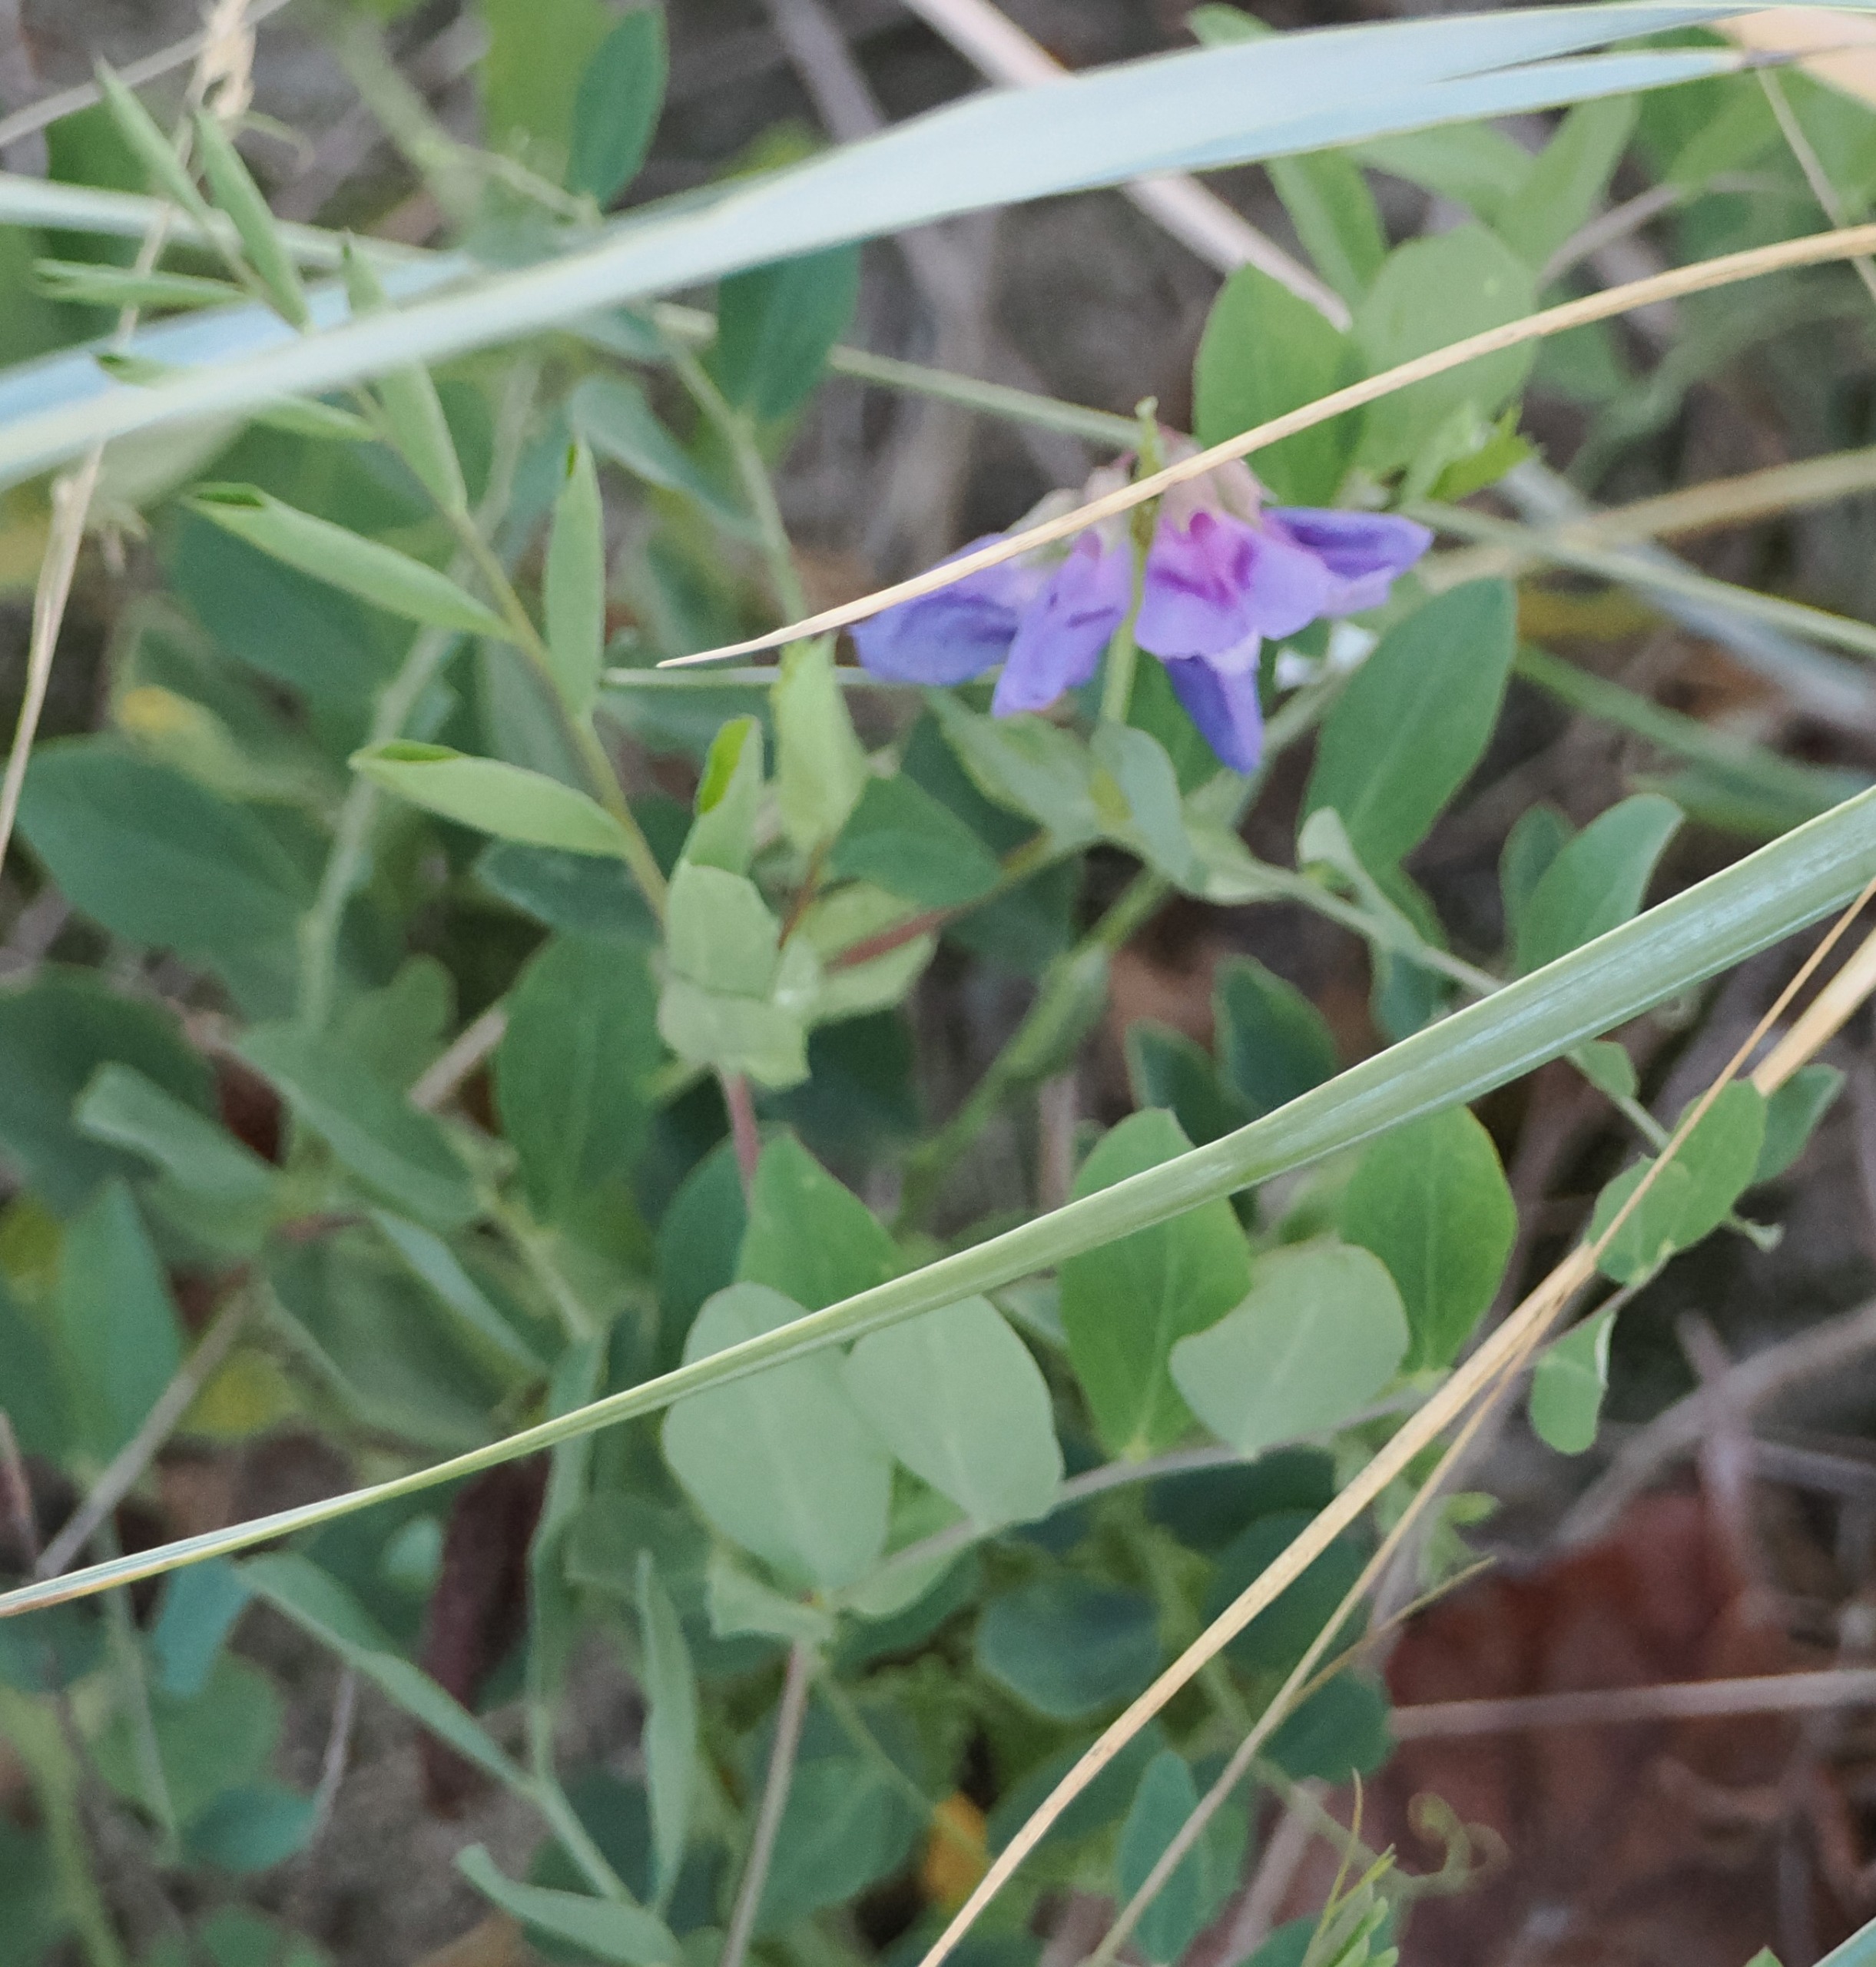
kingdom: Plantae
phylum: Tracheophyta
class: Magnoliopsida
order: Fabales
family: Fabaceae
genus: Lathyrus
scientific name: Lathyrus japonicus
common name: Strand-fladbælg
